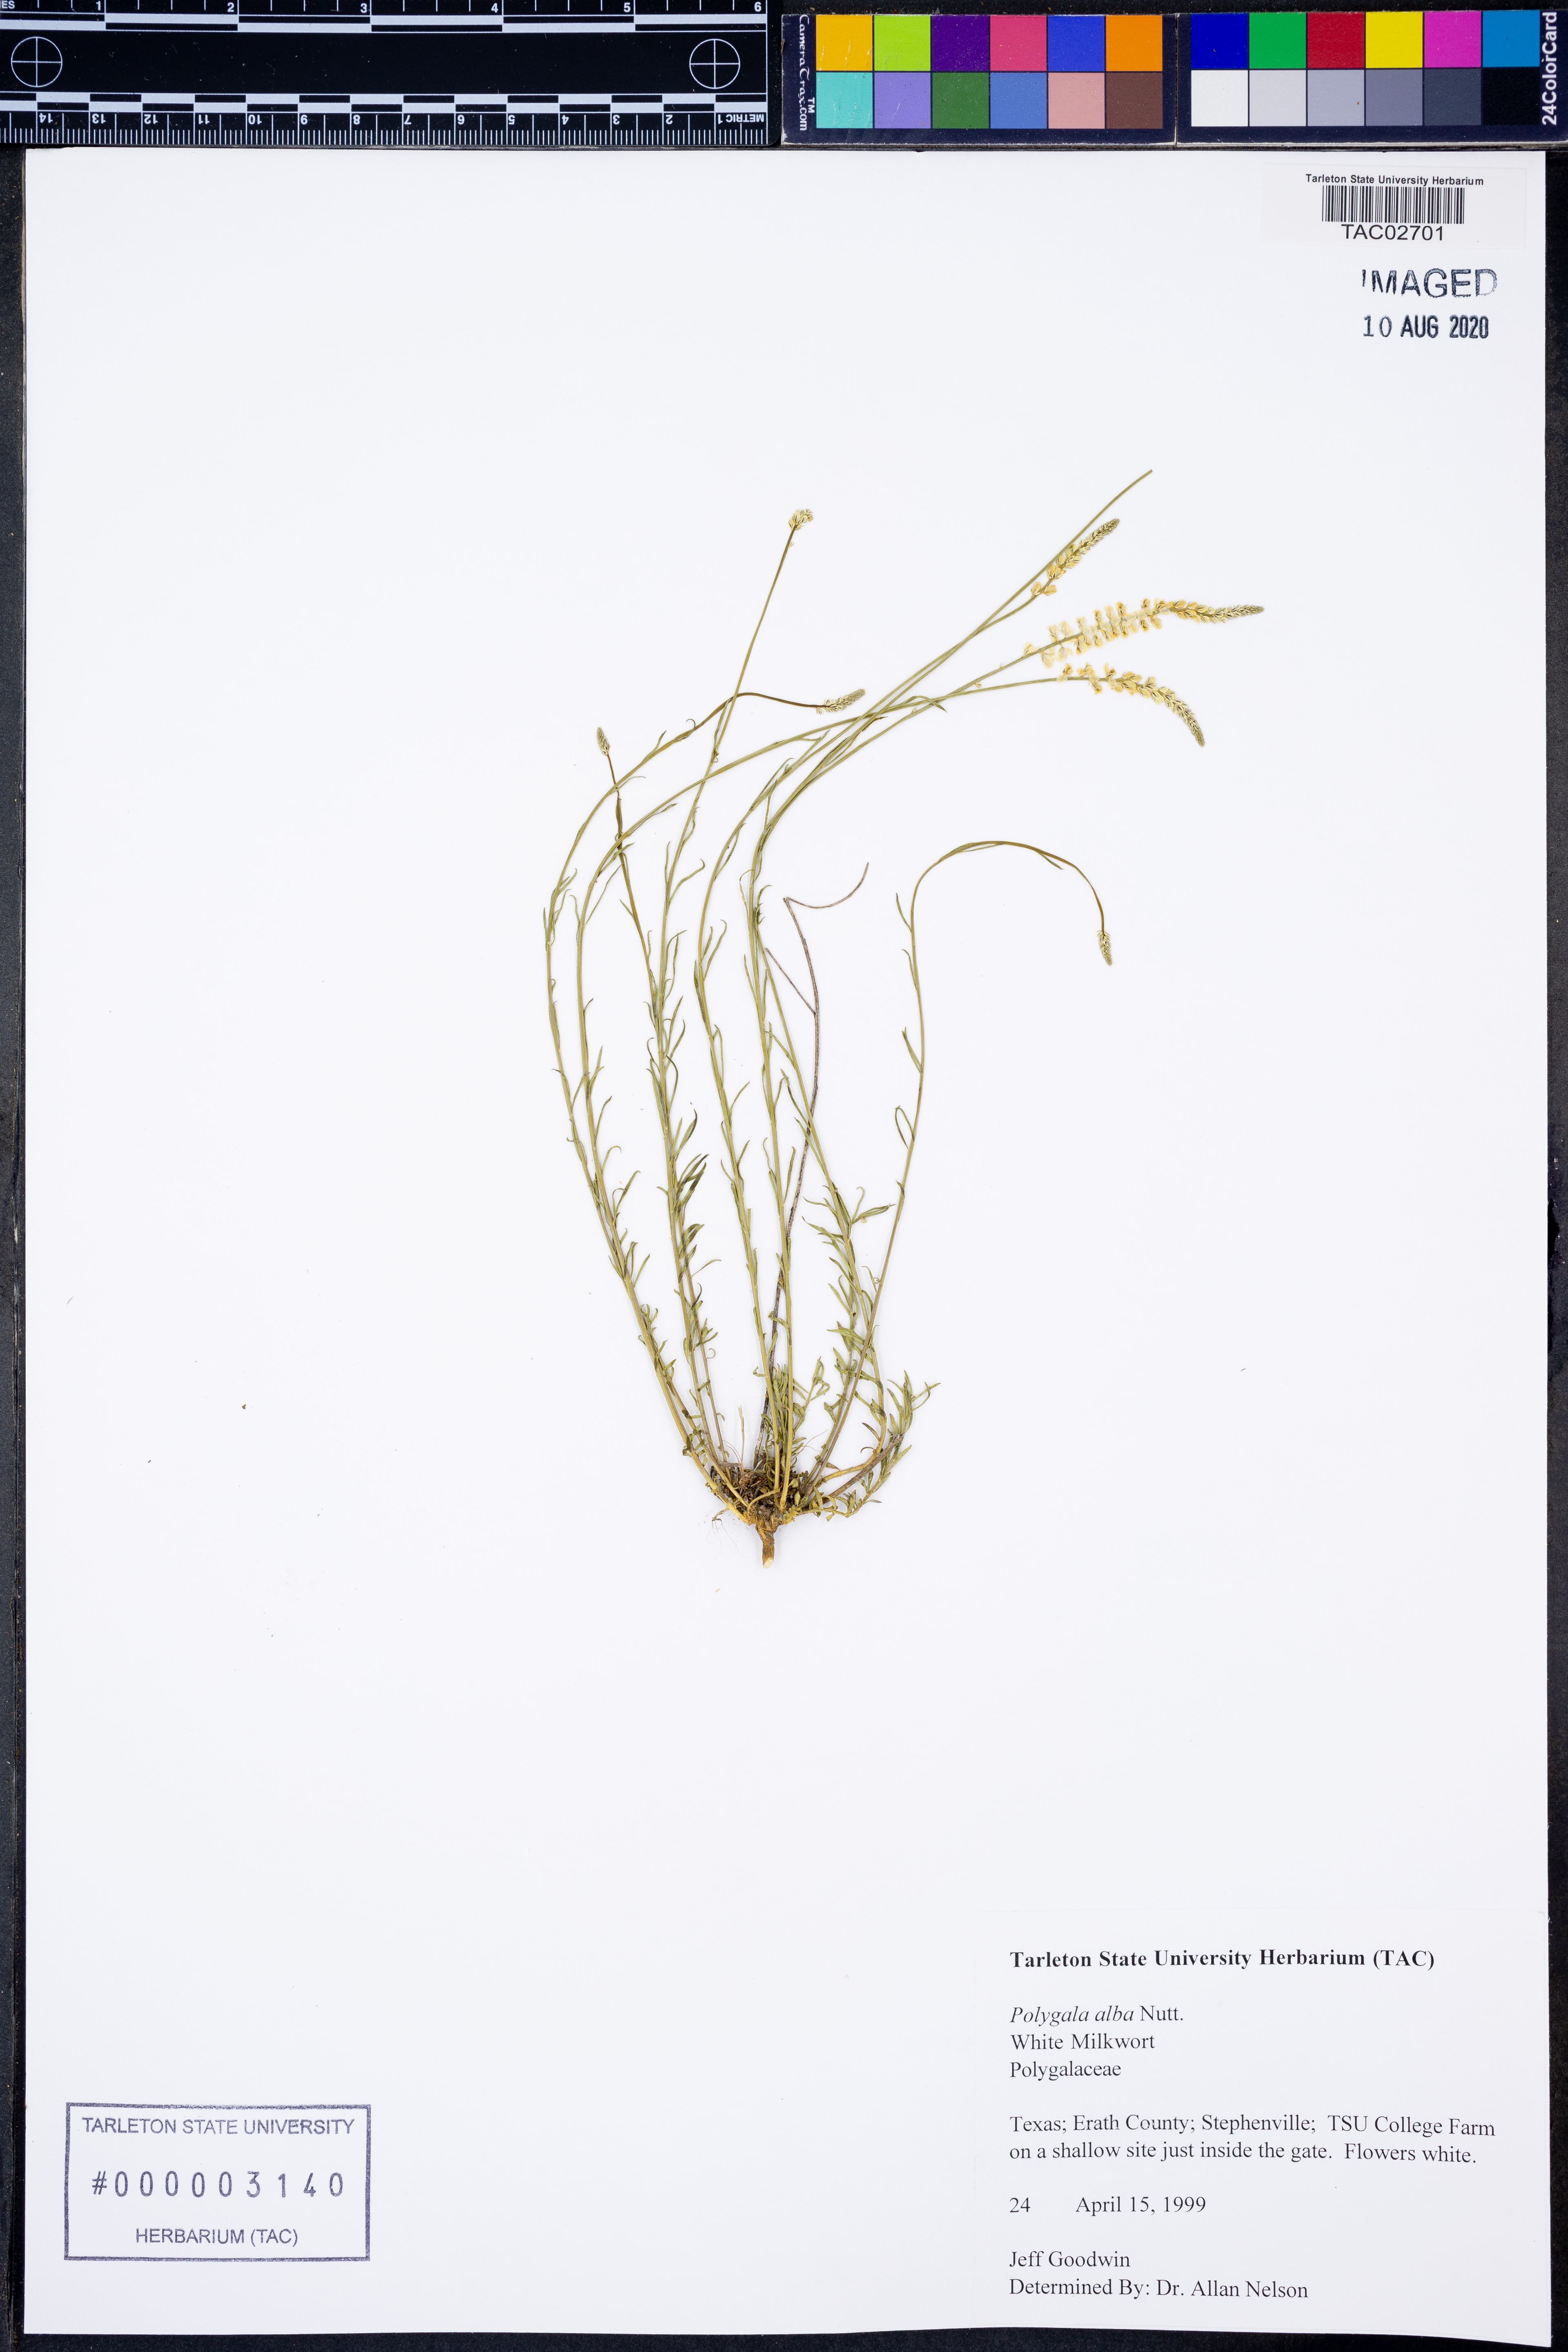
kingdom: Plantae
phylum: Tracheophyta
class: Magnoliopsida
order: Fabales
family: Polygalaceae
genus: Polygala
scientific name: Polygala alba
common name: White milkwort
